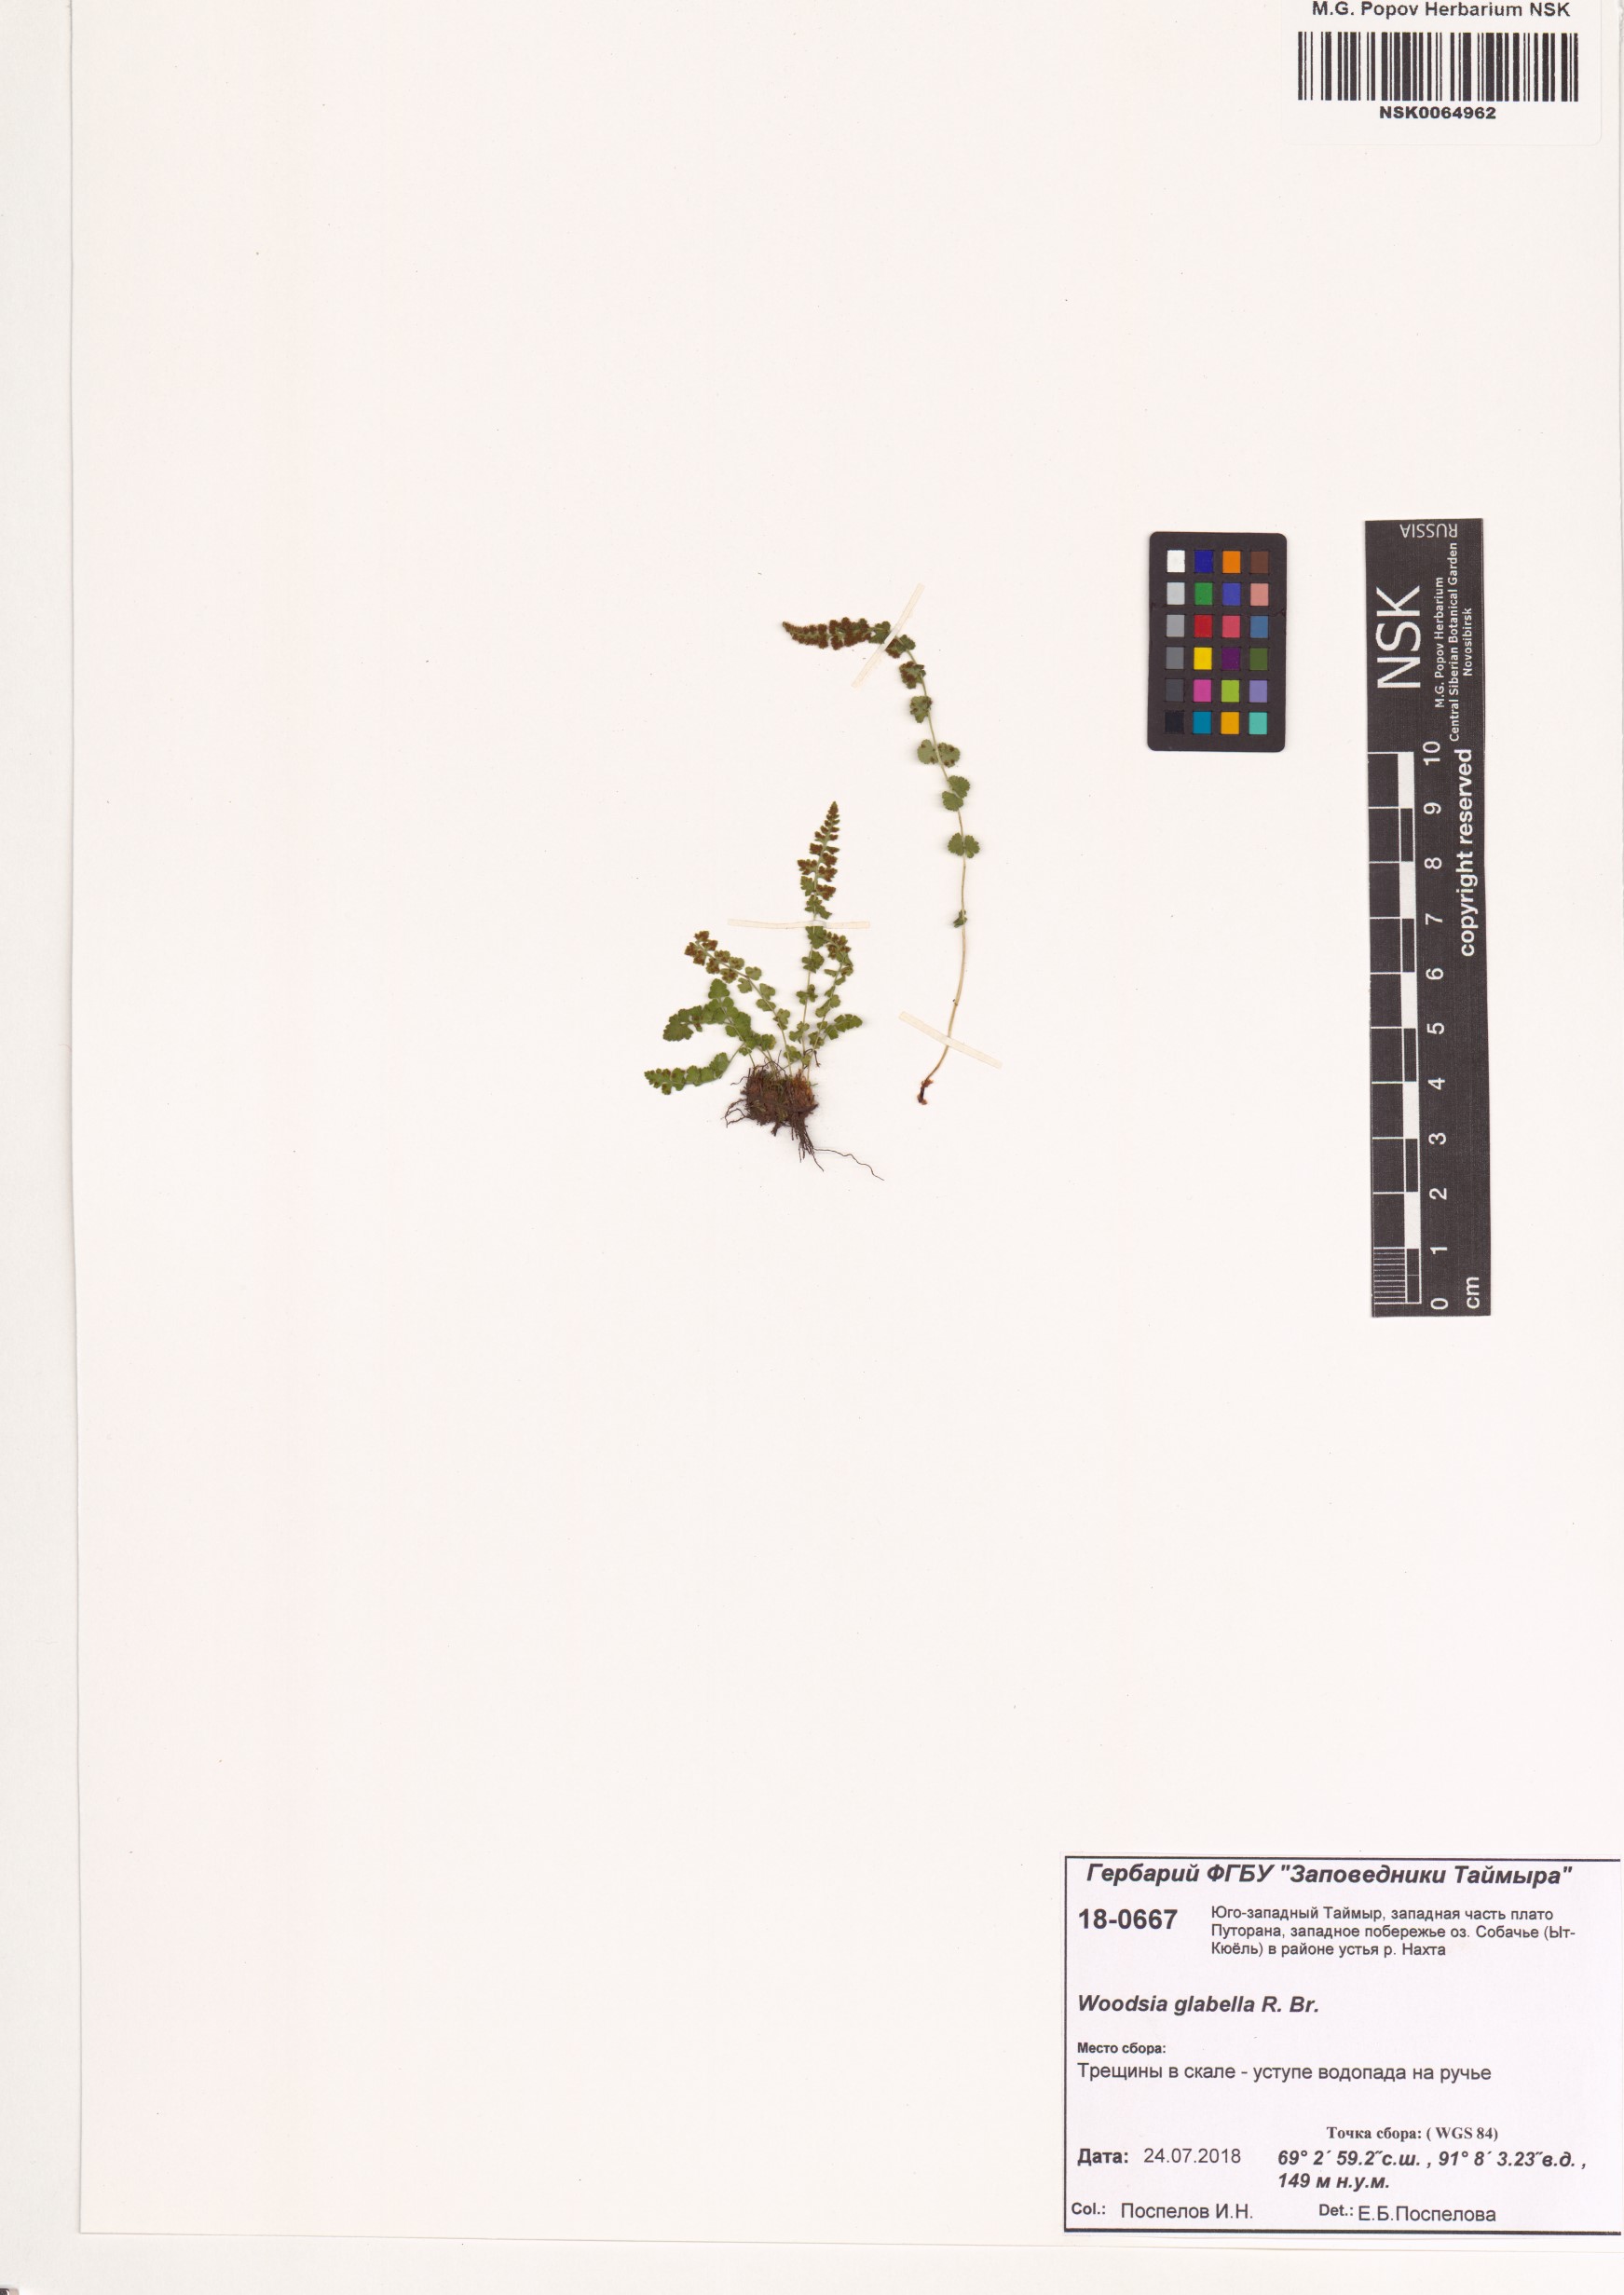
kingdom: Plantae
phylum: Tracheophyta
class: Polypodiopsida
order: Polypodiales
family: Woodsiaceae
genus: Woodsia
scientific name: Woodsia glabella
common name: Smooth woodsia
